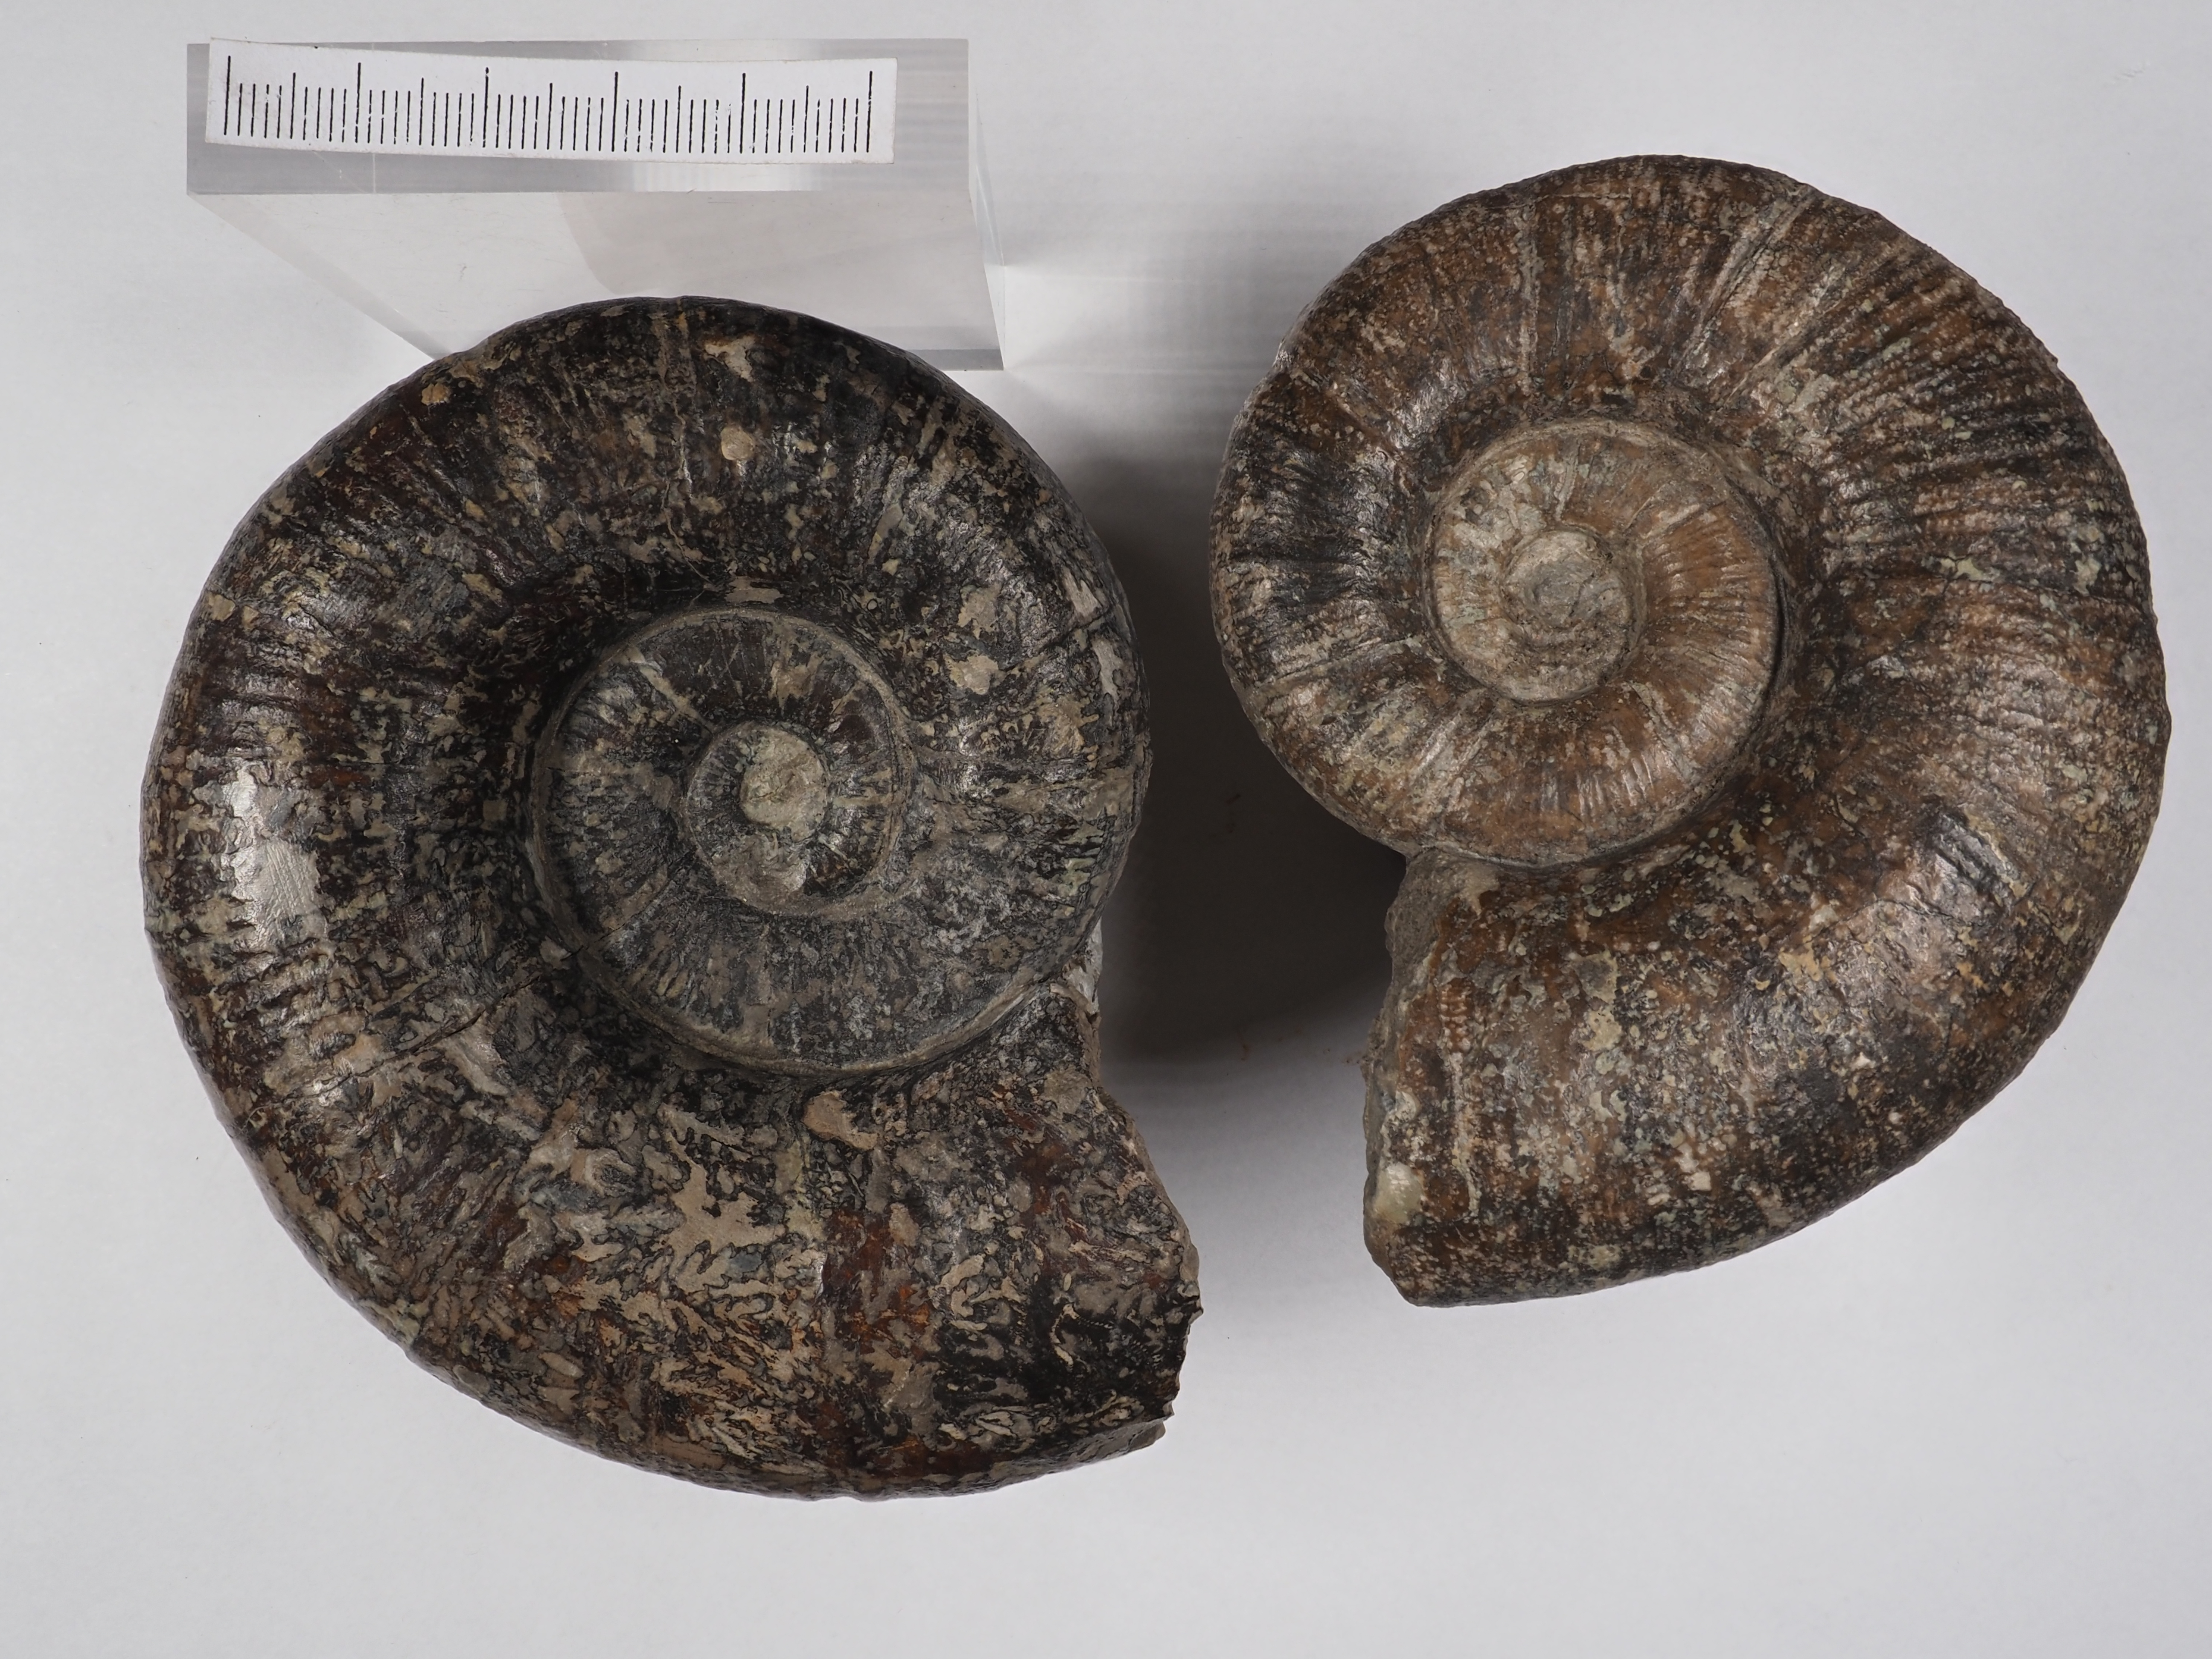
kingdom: Animalia
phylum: Mollusca
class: Cephalopoda
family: Lytoceratidae
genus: Lytoceras
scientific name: Lytoceras fimbriatum
